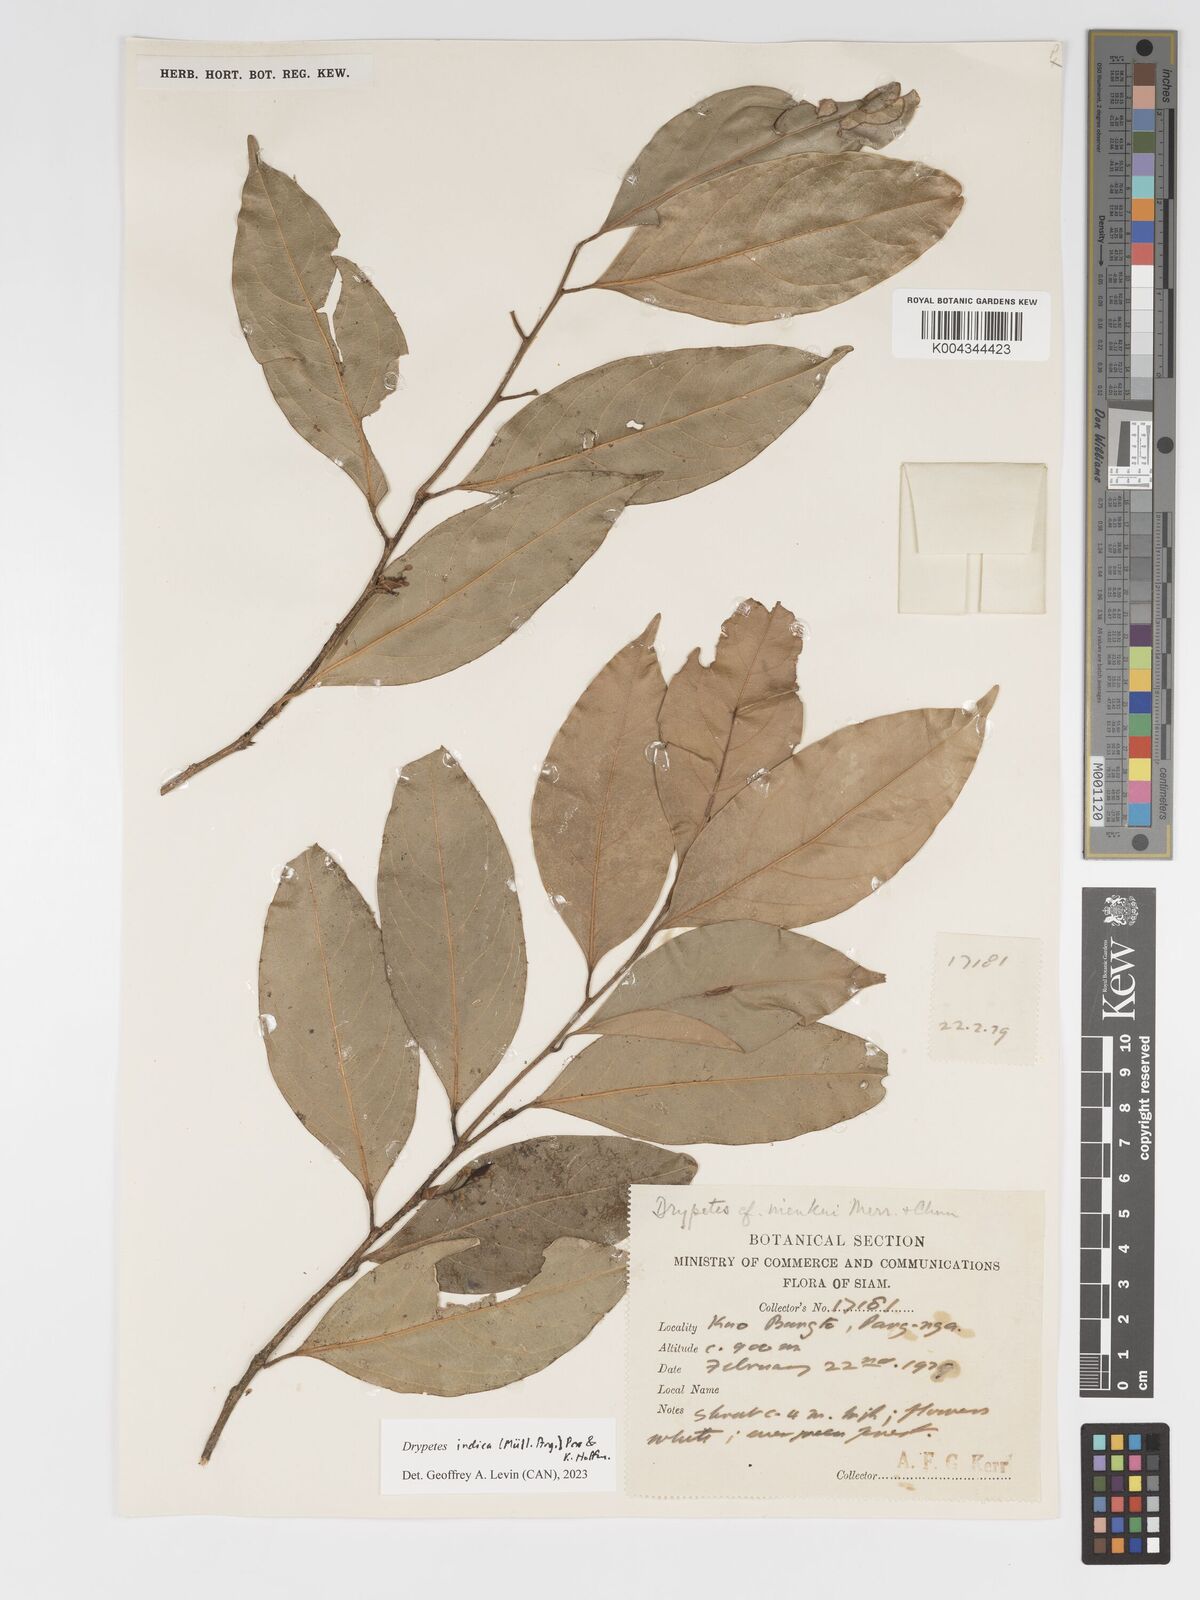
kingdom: Plantae
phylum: Tracheophyta
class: Magnoliopsida
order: Malpighiales
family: Putranjivaceae
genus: Drypetes
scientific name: Drypetes indica
